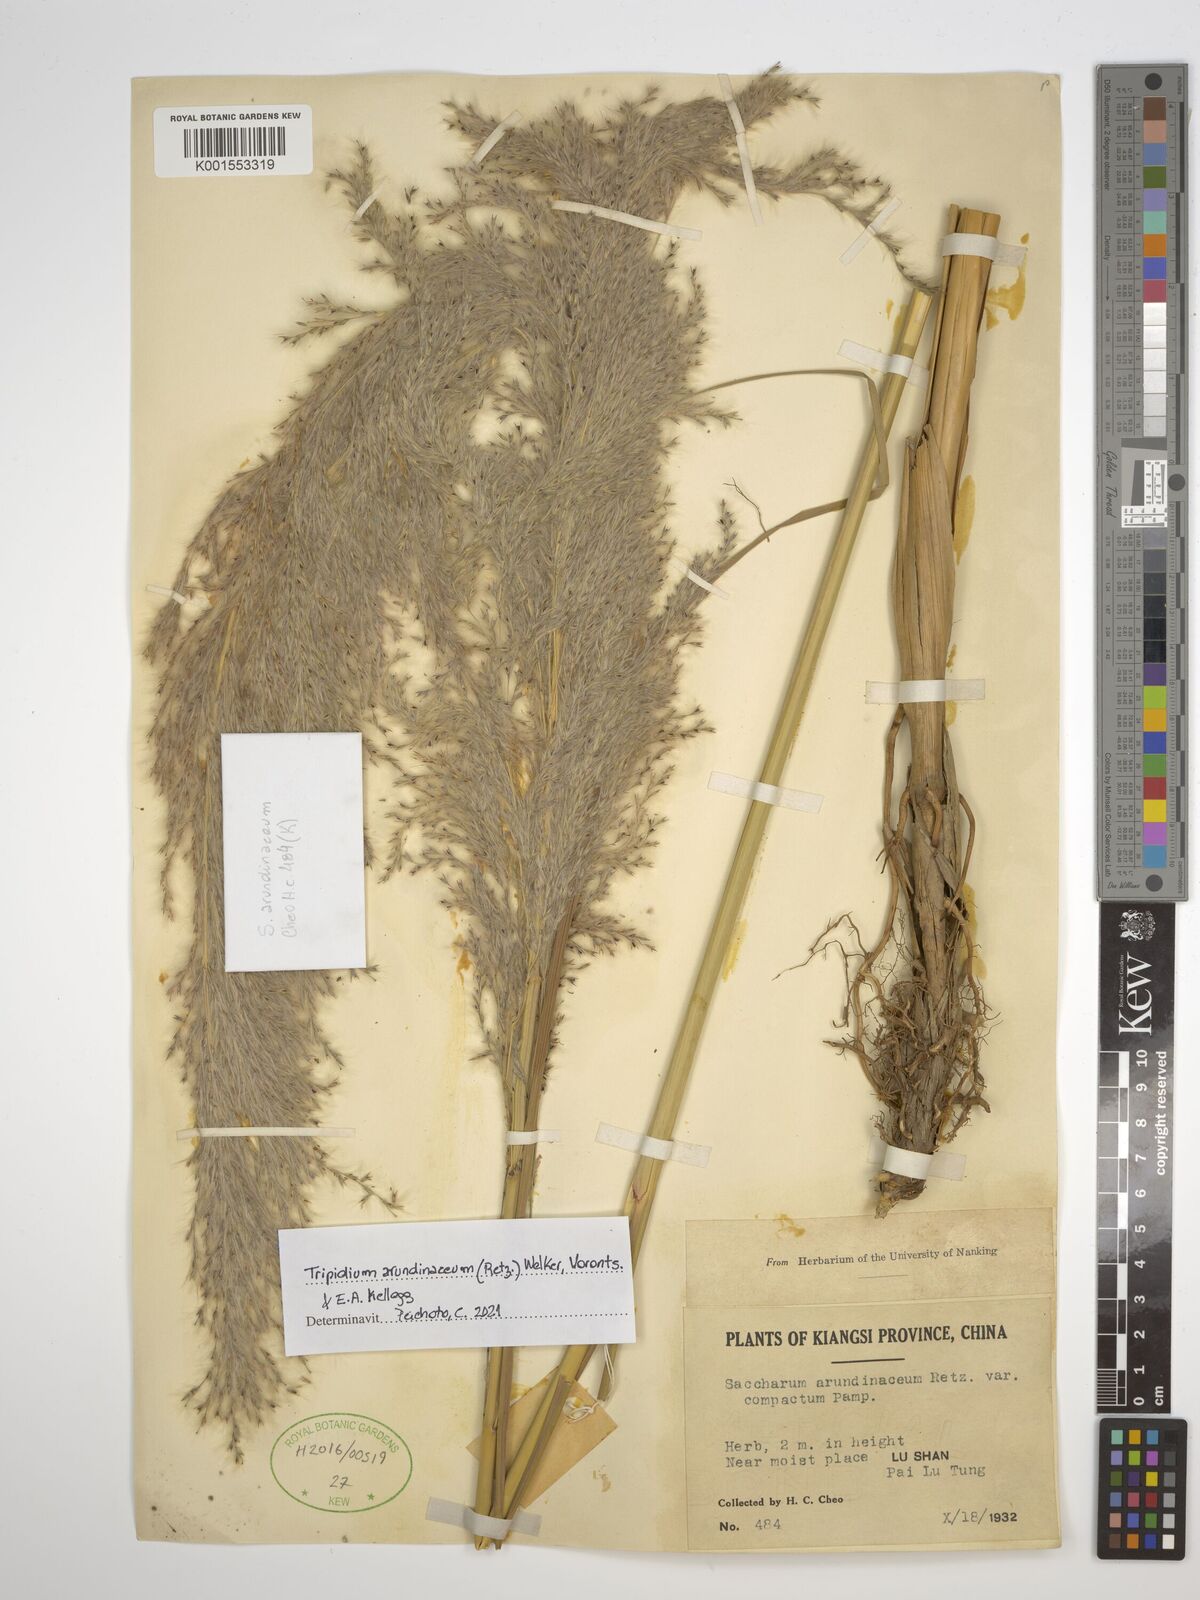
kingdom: Plantae
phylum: Tracheophyta
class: Liliopsida
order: Poales
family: Poaceae
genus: Tripidium
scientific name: Tripidium arundinaceum
